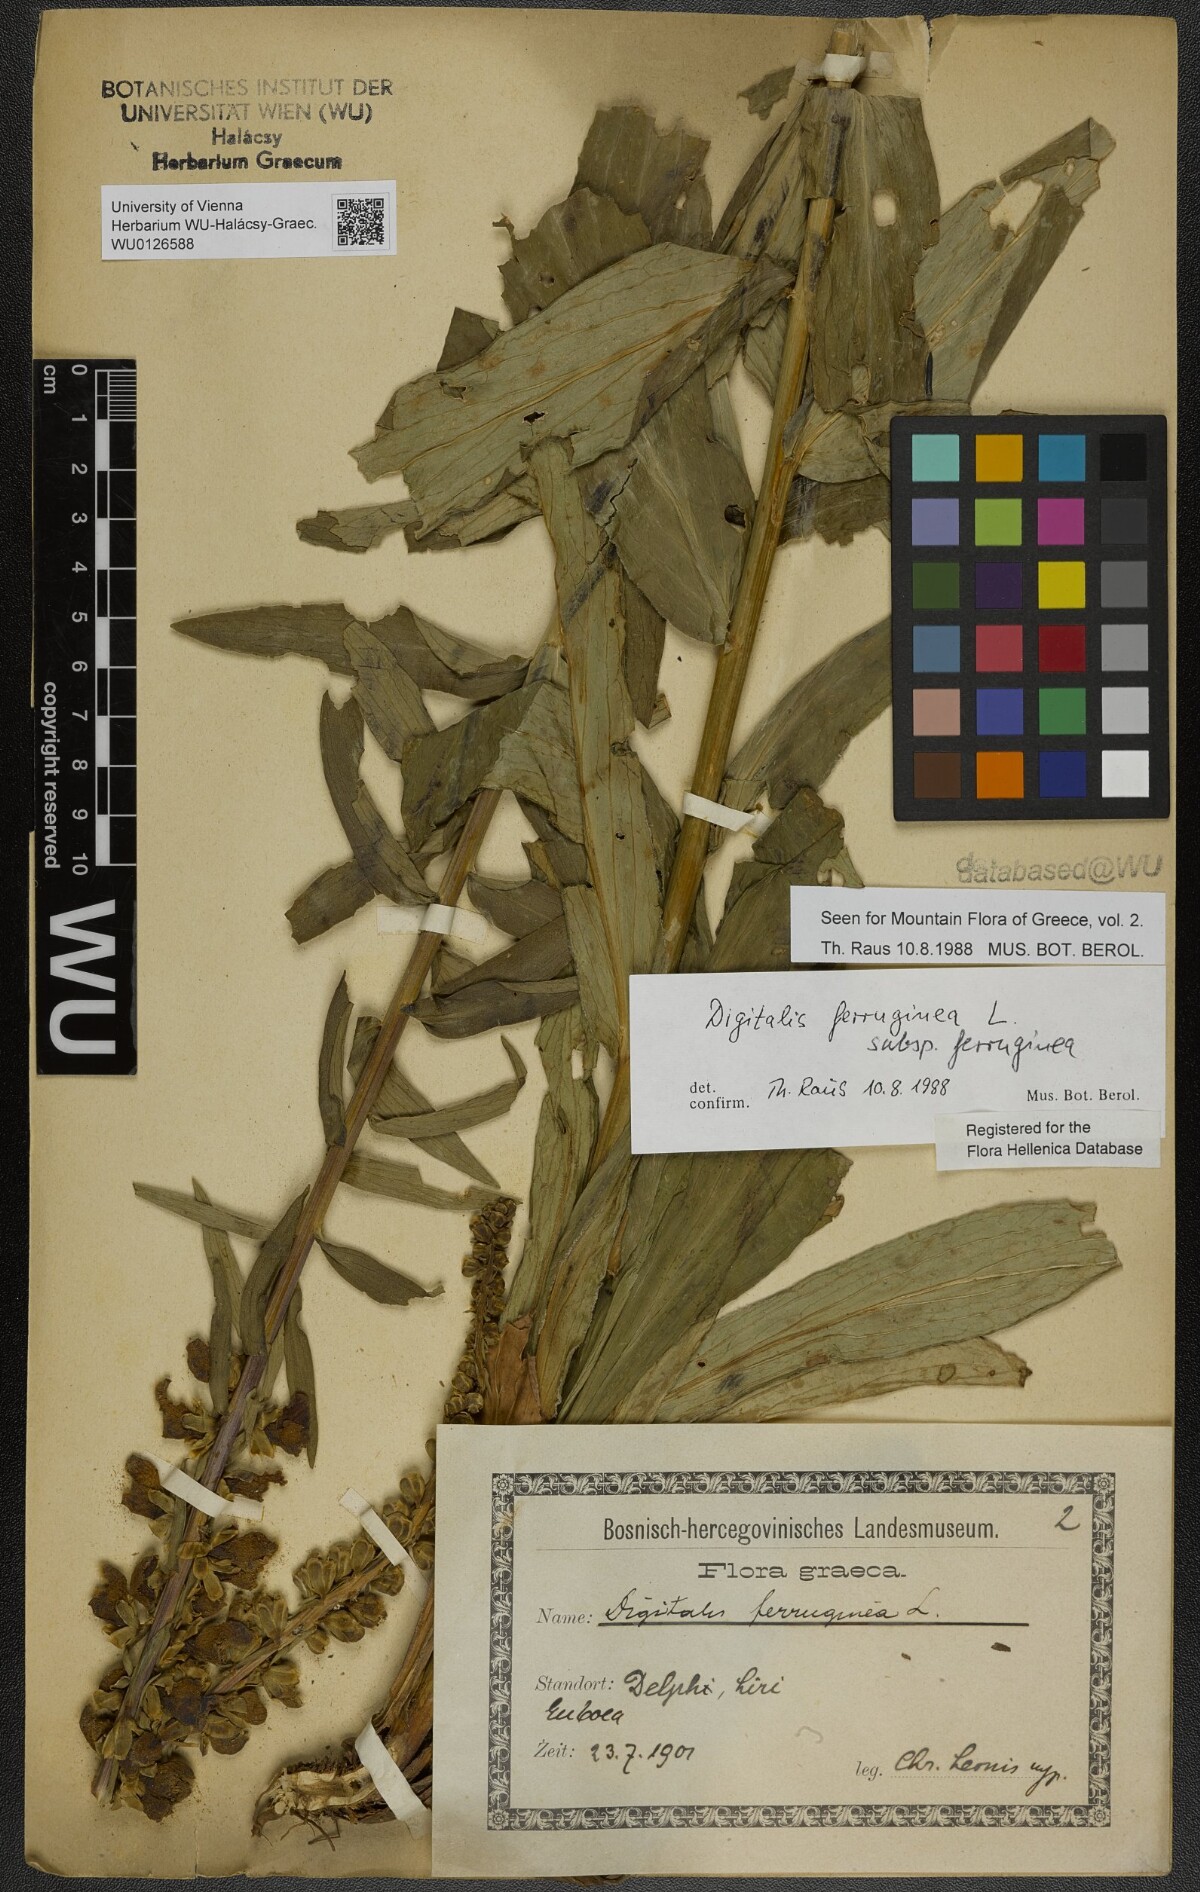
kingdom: Plantae
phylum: Tracheophyta
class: Magnoliopsida
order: Lamiales
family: Plantaginaceae
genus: Digitalis
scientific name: Digitalis ferruginea
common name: Rusty foxglove
